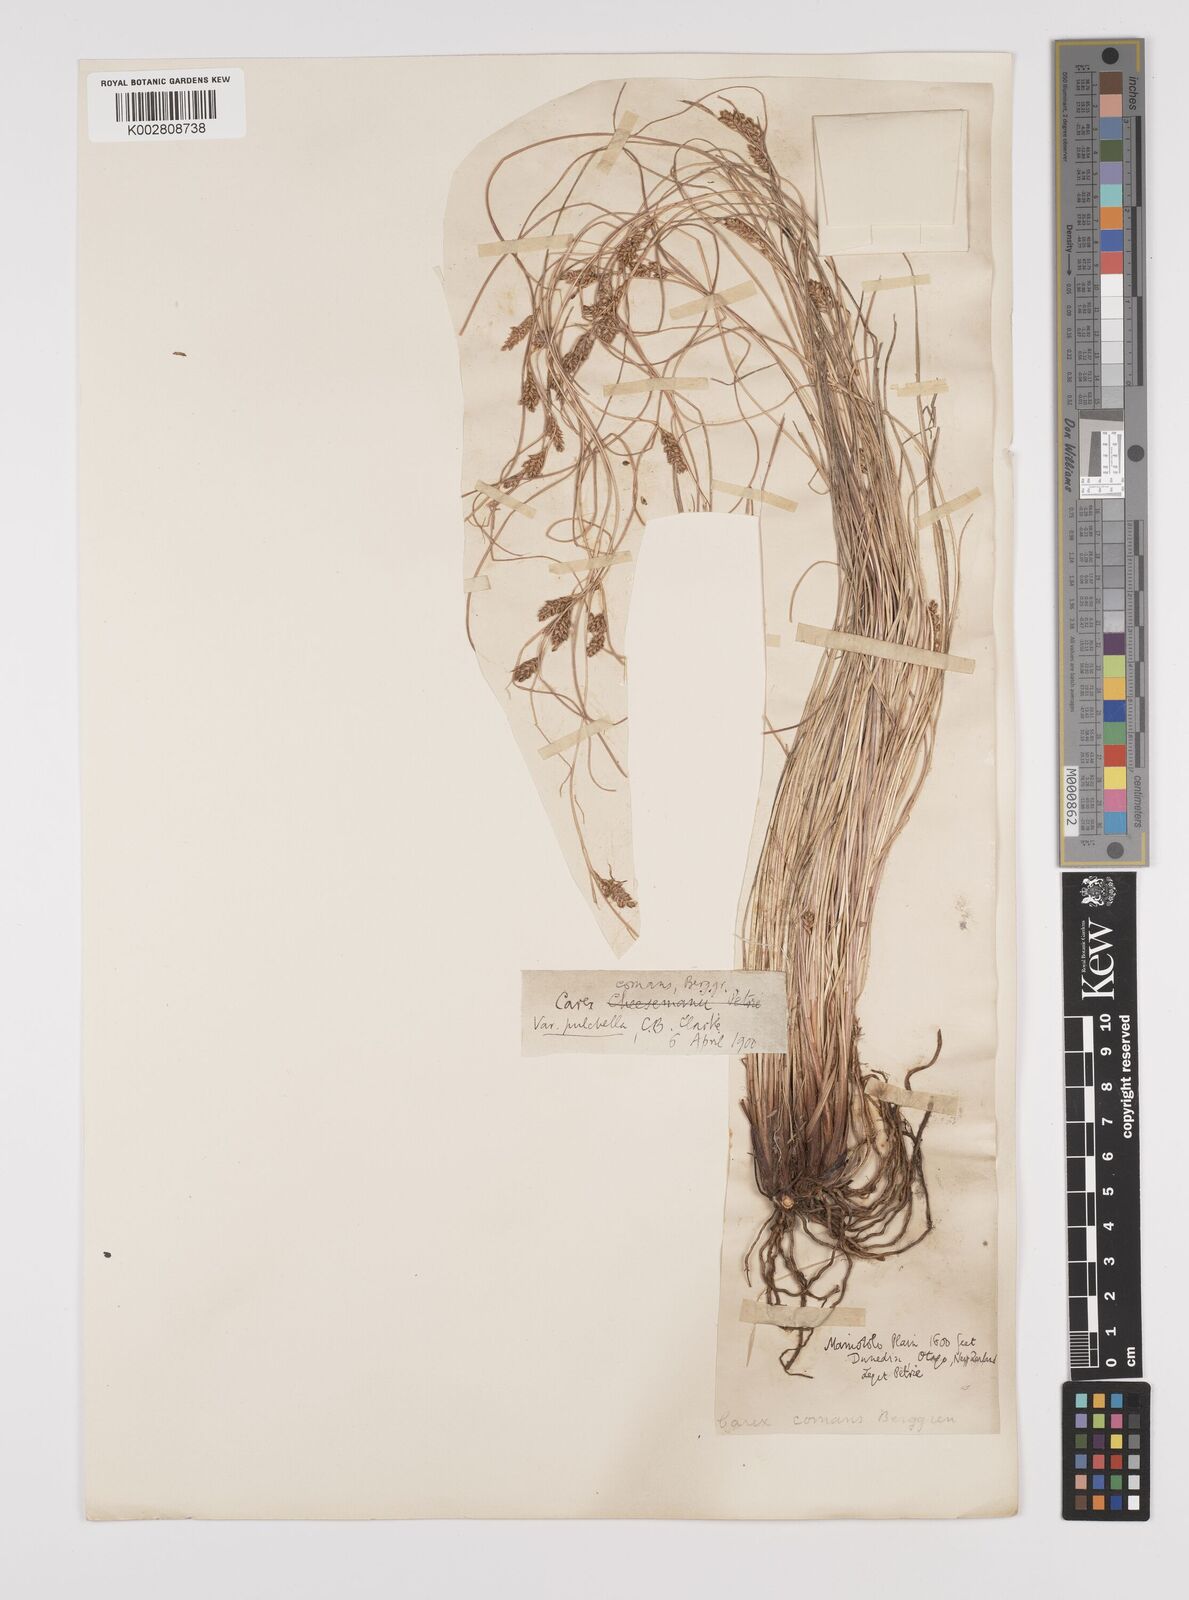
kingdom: Plantae
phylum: Tracheophyta
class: Liliopsida
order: Poales
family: Cyperaceae
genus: Carex
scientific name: Carex comans
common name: Longwood tussock
